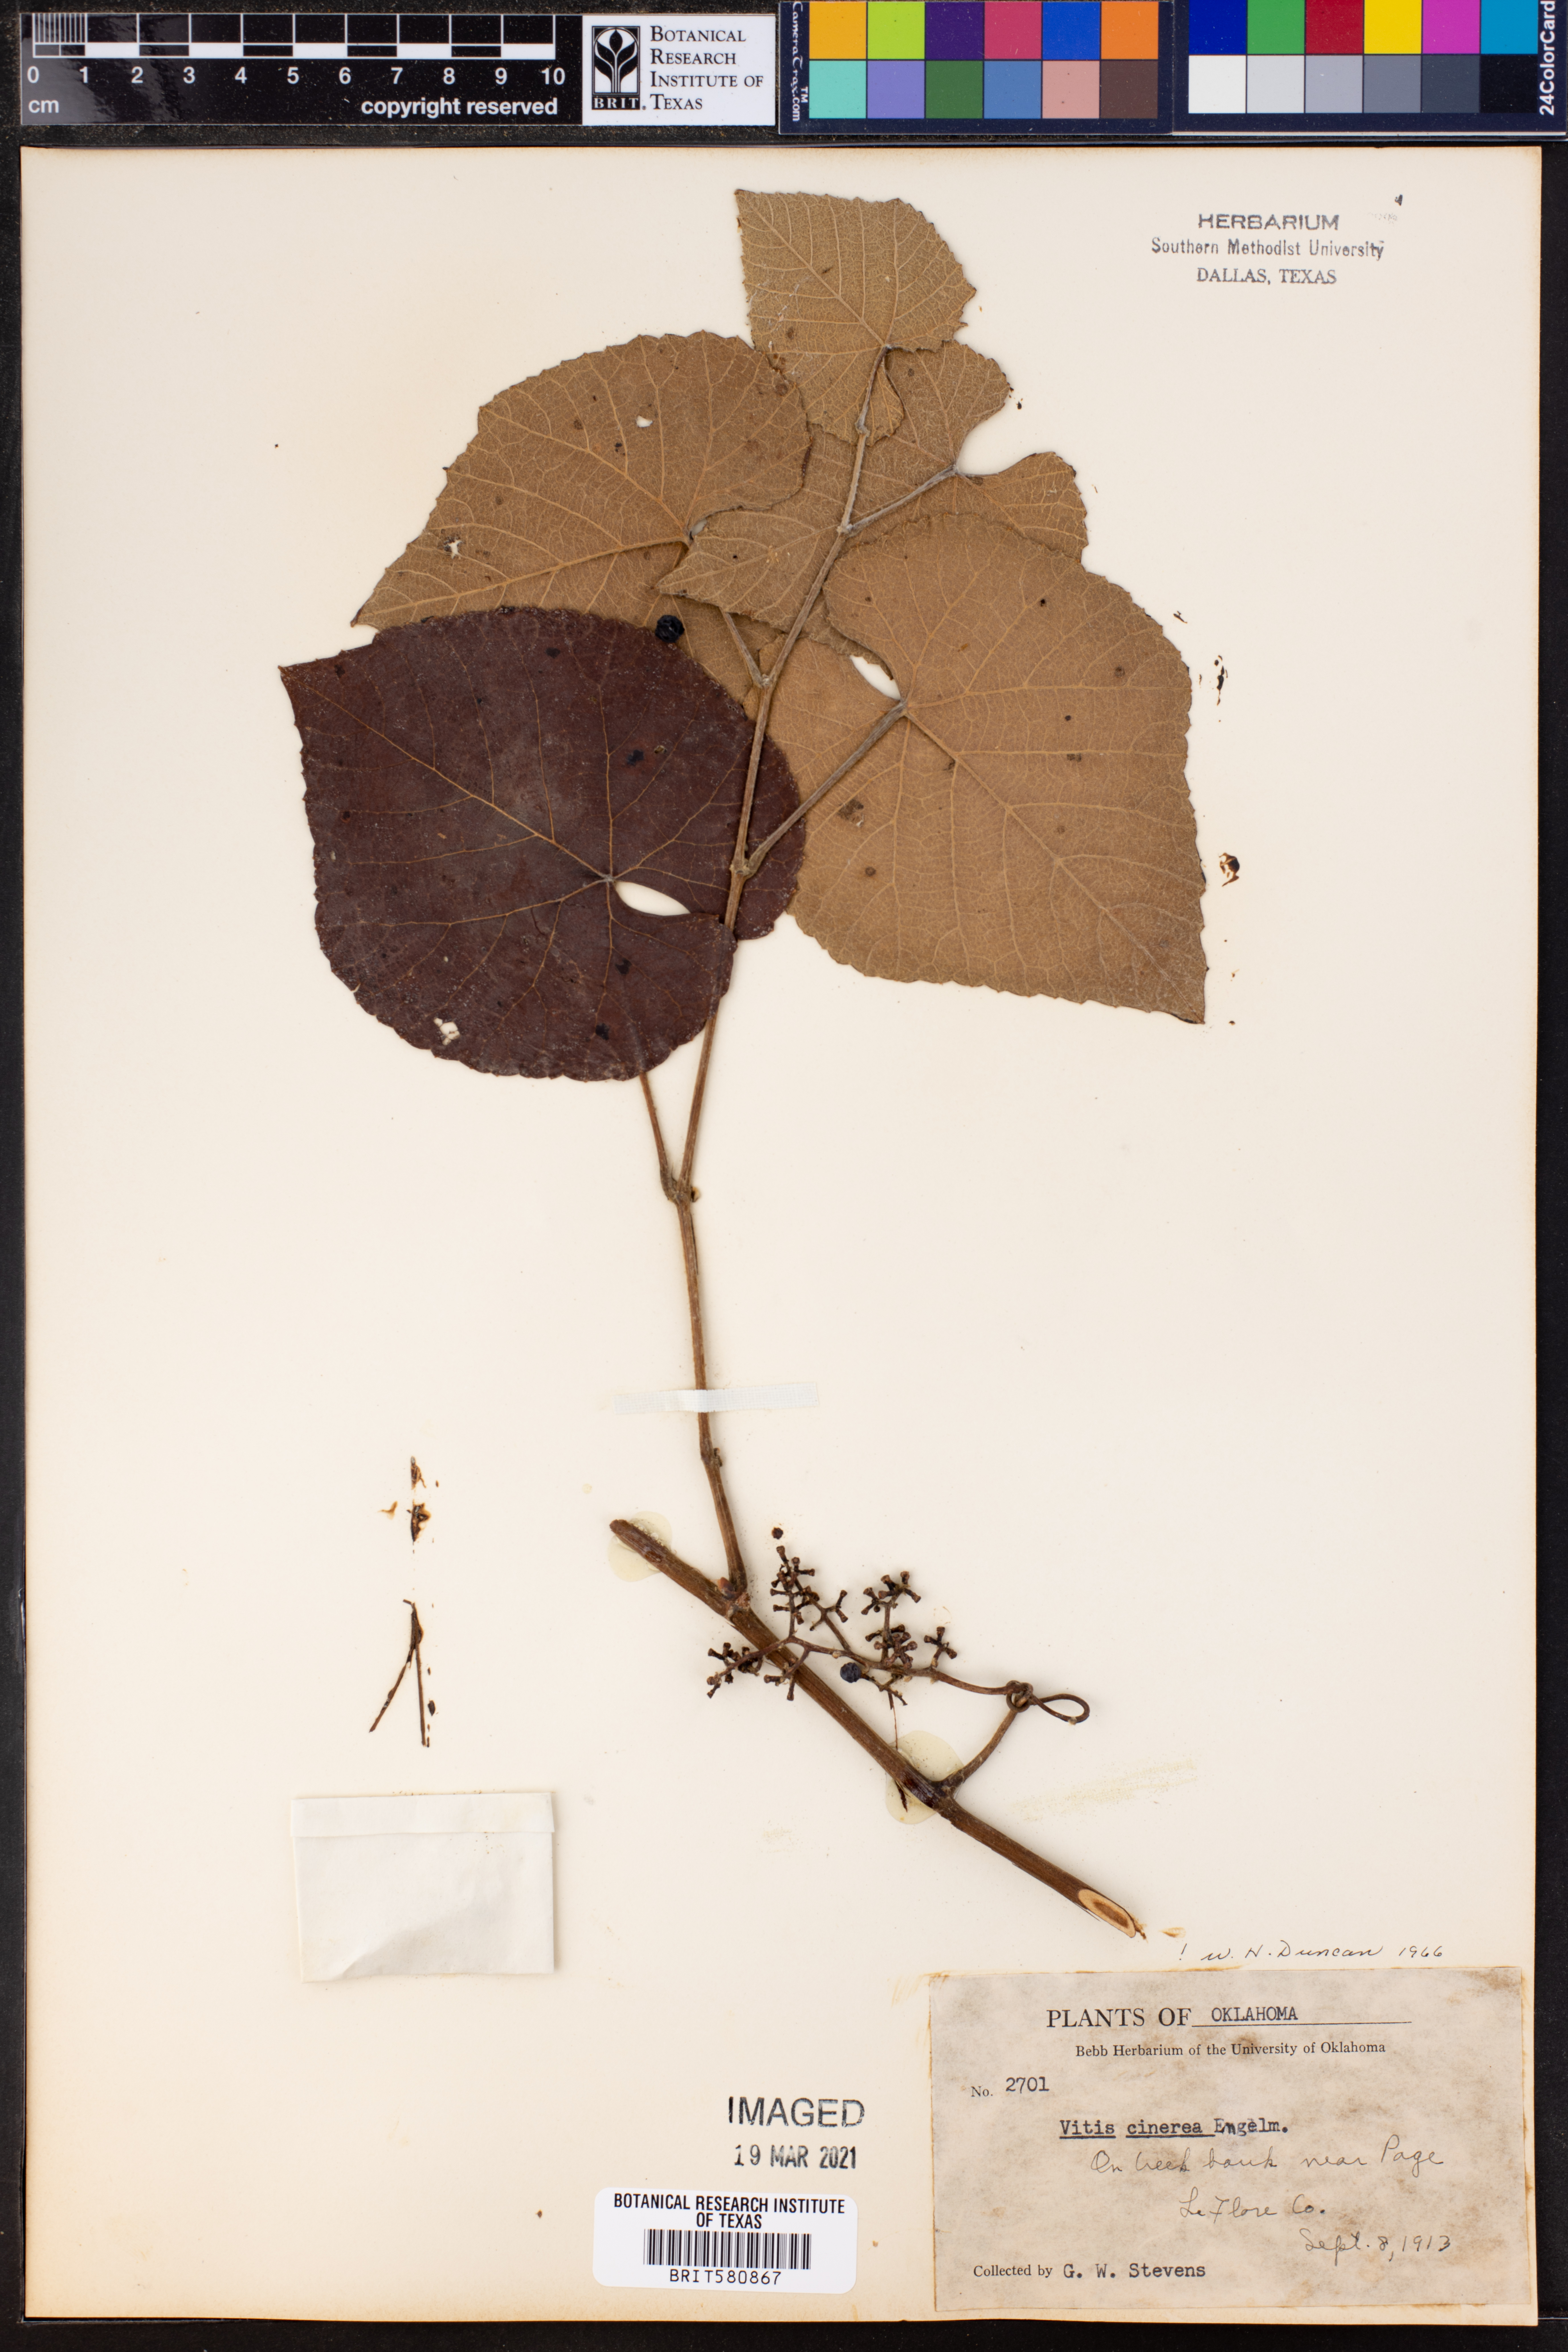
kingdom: Plantae
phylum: Tracheophyta
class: Magnoliopsida
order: Vitales
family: Vitaceae
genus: Vitis
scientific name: Vitis cinerea
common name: Ashy grape
